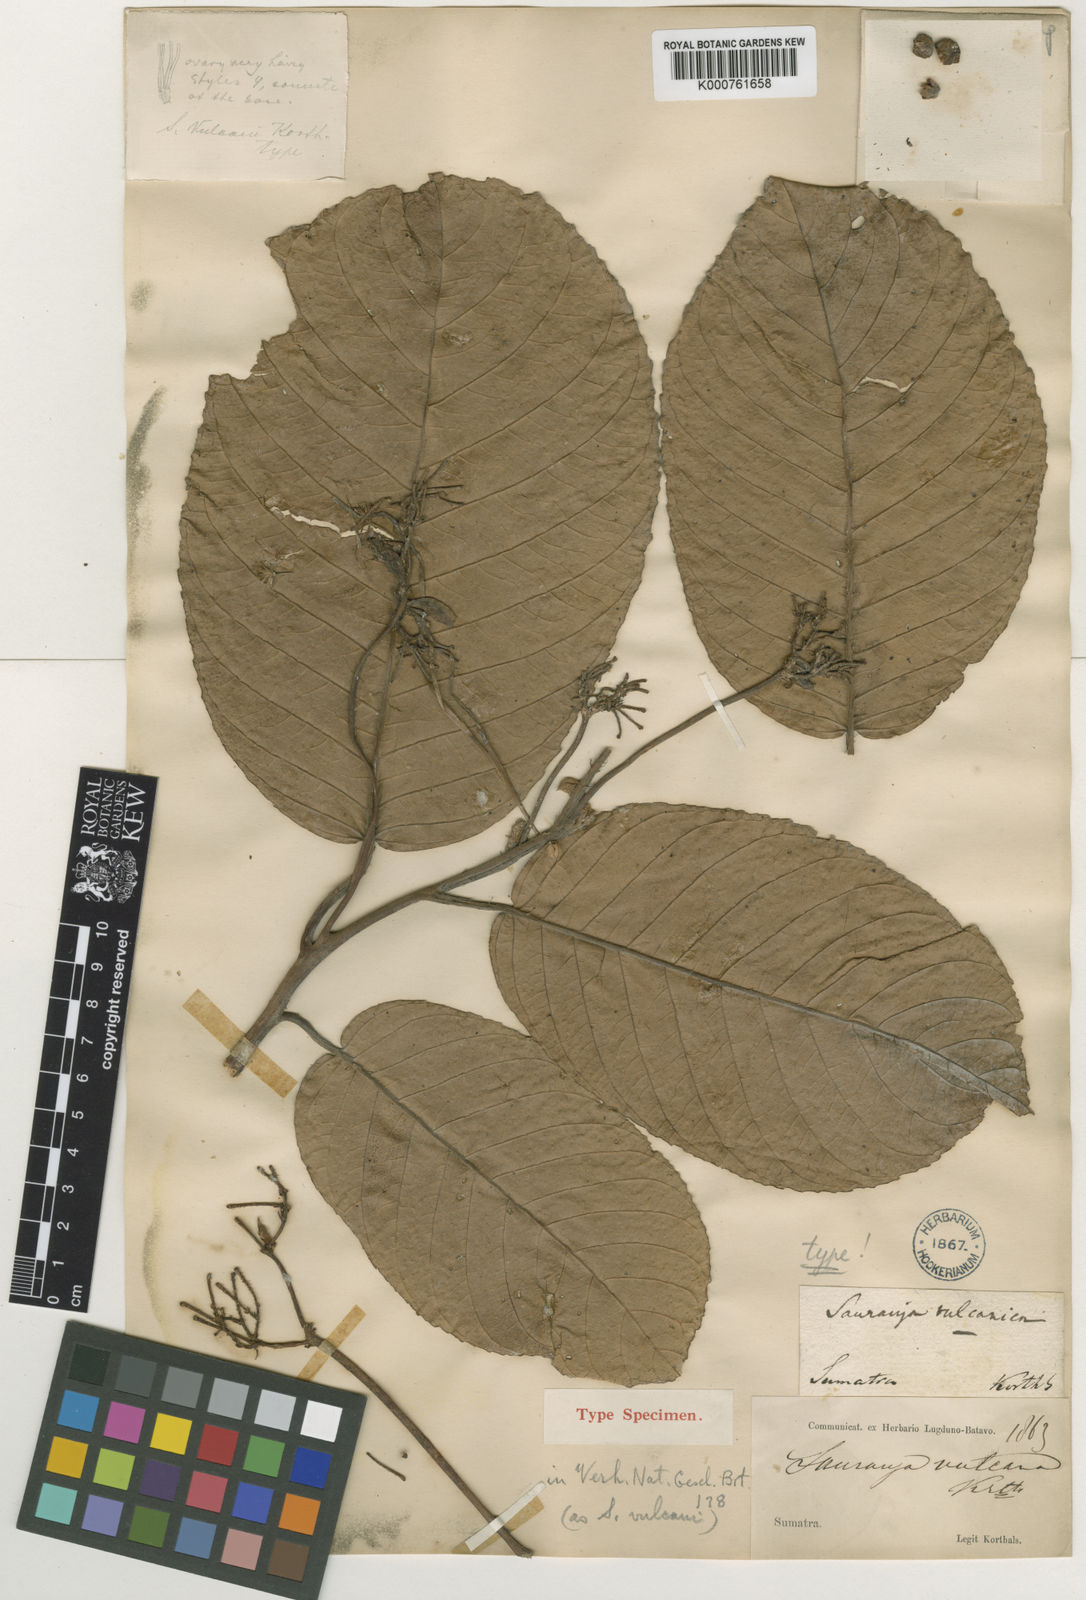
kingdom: Plantae
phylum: Tracheophyta
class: Magnoliopsida
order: Ericales
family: Actinidiaceae
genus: Saurauia
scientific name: Saurauia vulcani
